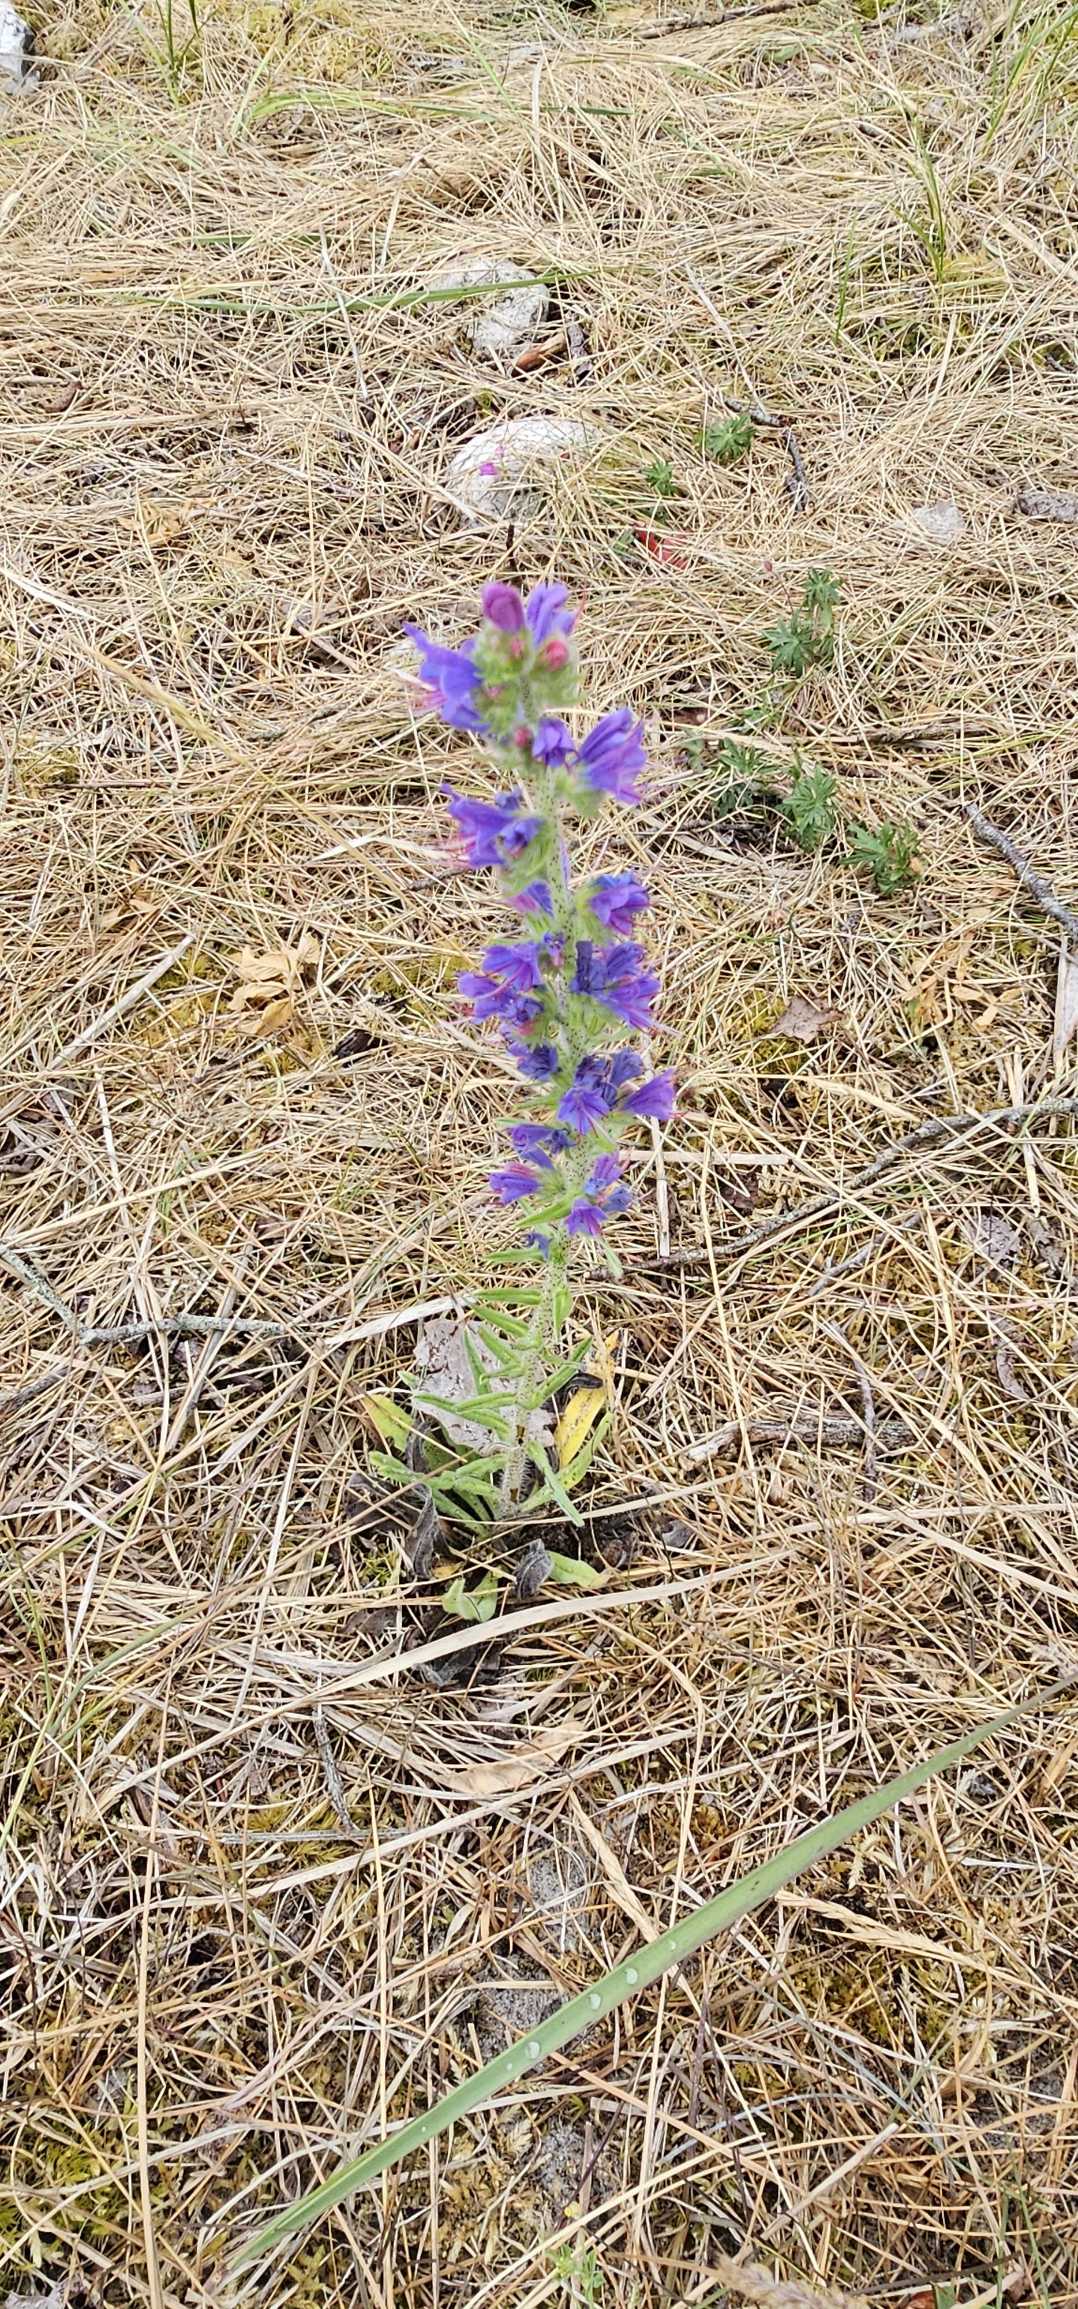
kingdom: Plantae
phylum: Tracheophyta
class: Magnoliopsida
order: Boraginales
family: Boraginaceae
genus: Echium
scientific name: Echium vulgare
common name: Slangehoved
